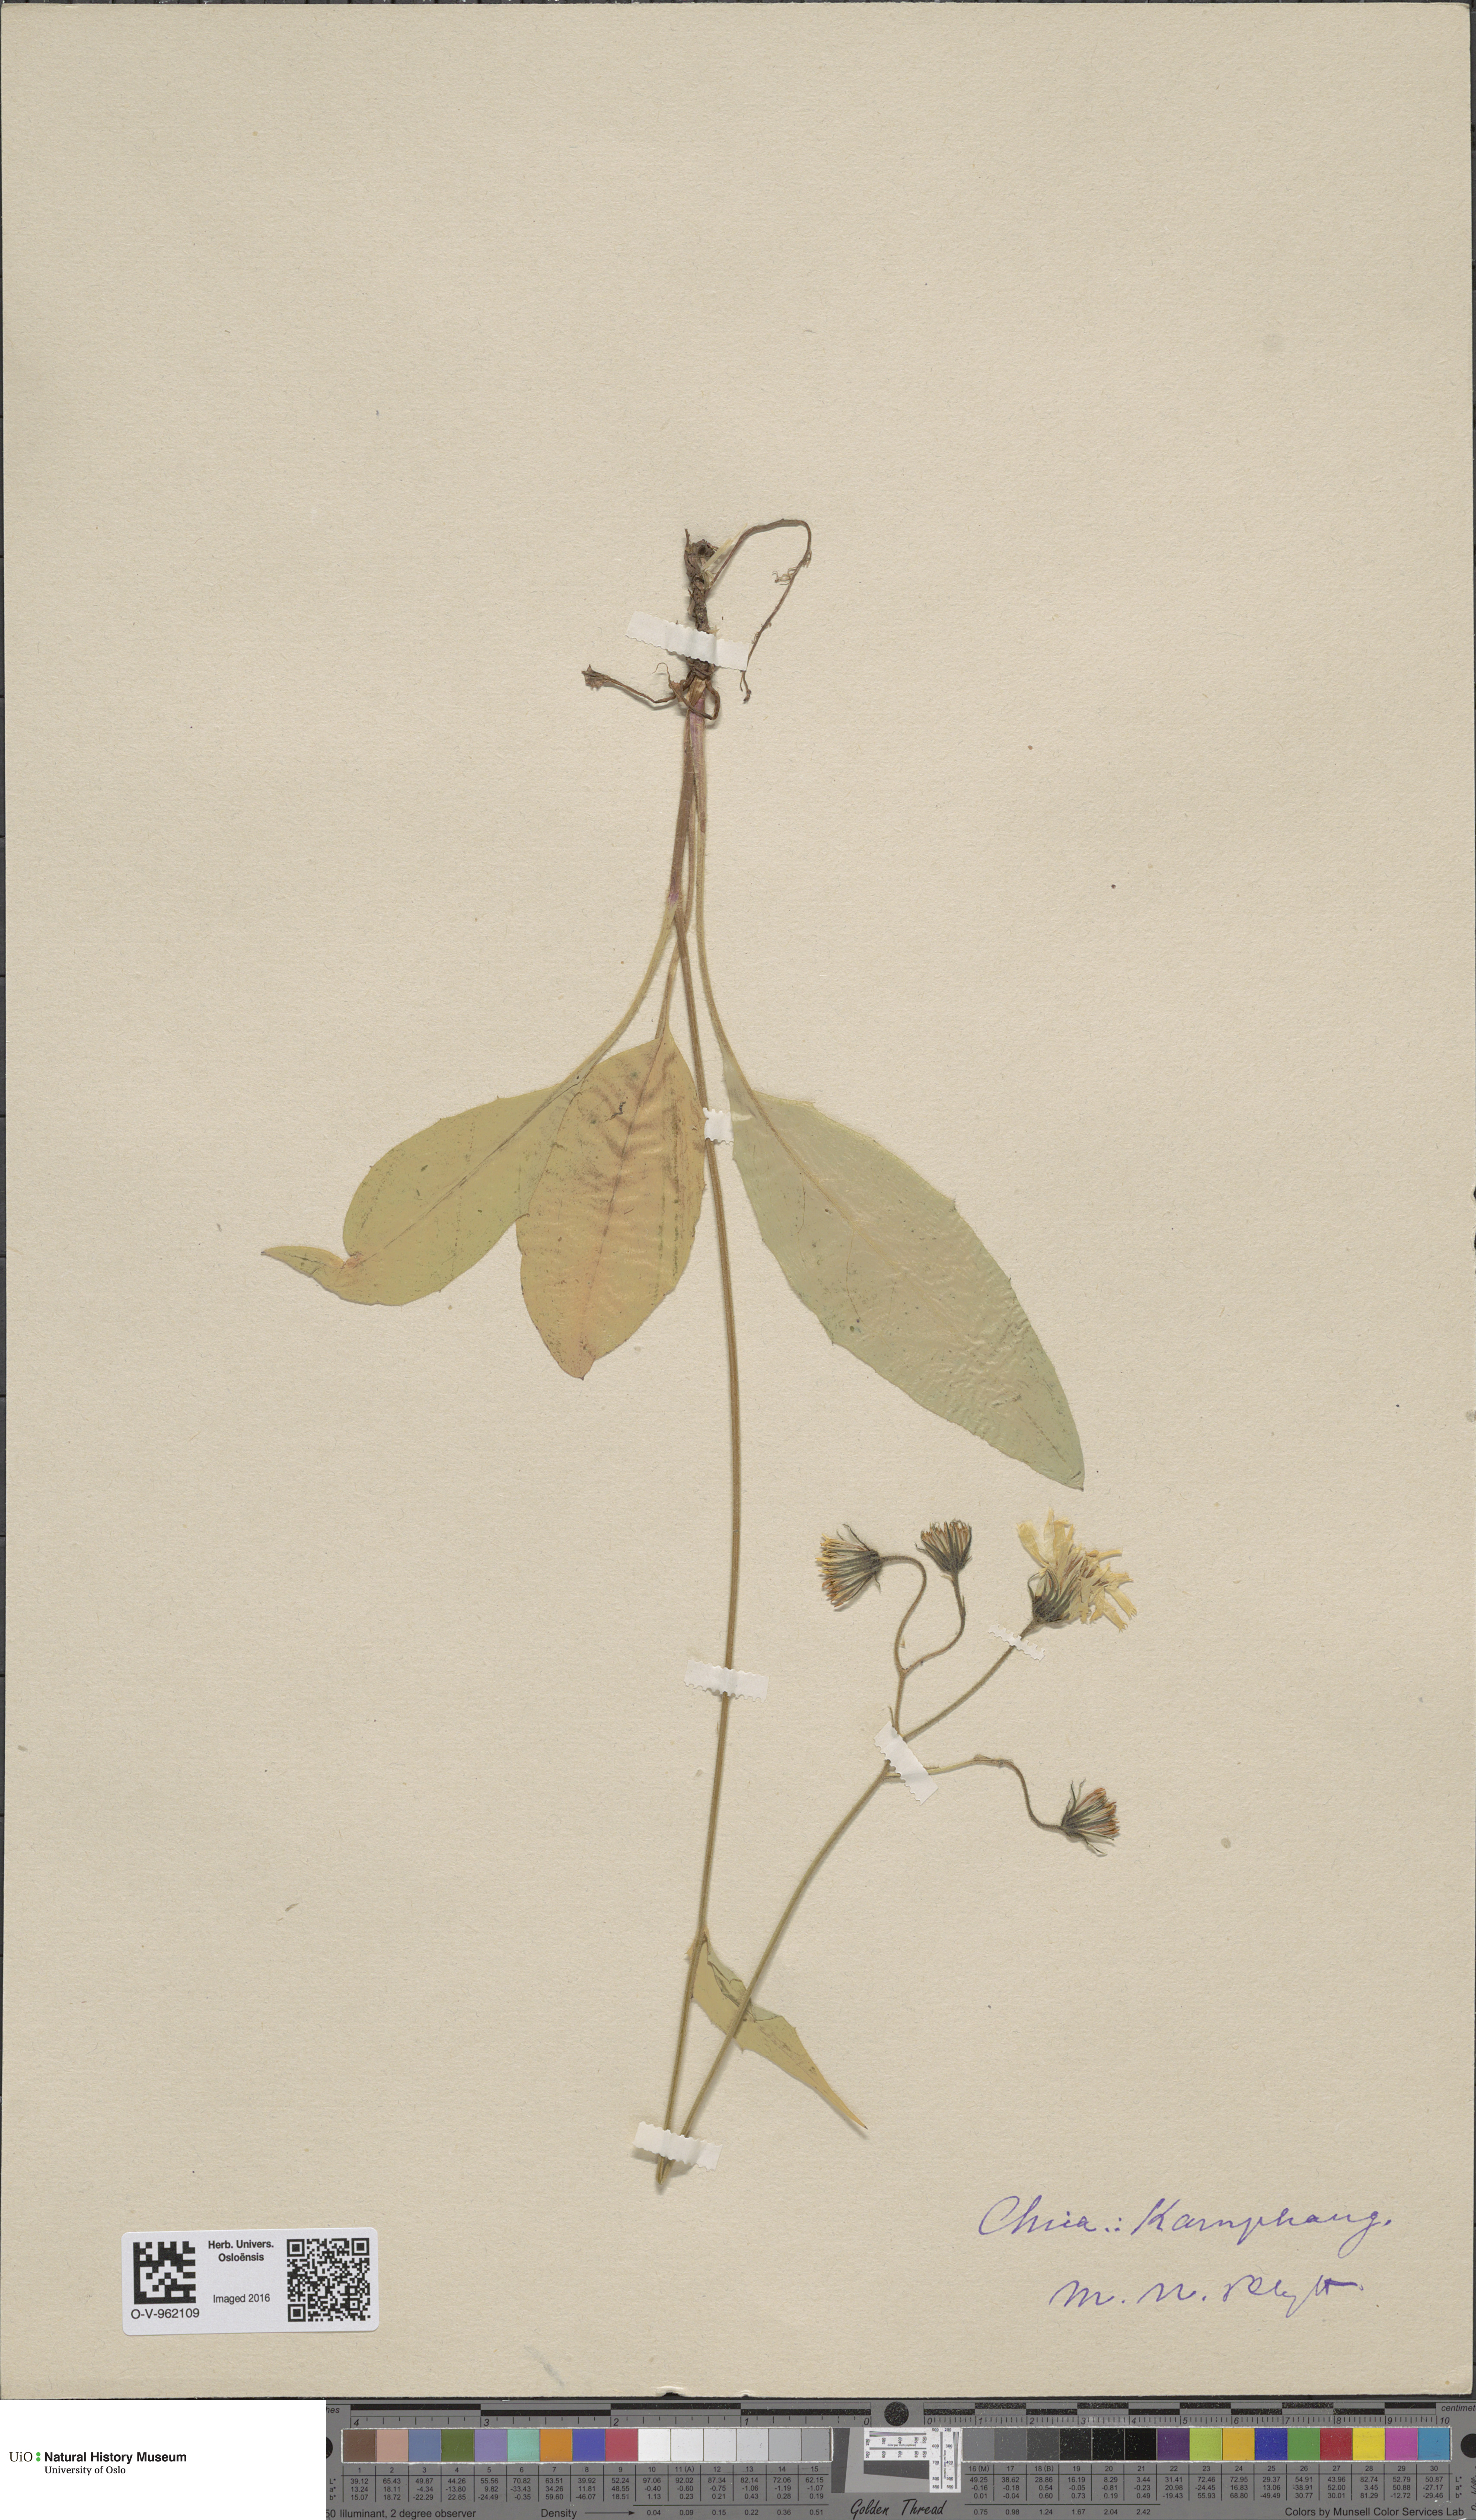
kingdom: Plantae
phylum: Tracheophyta
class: Magnoliopsida
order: Asterales
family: Asteraceae
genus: Hieracium
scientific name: Hieracium
